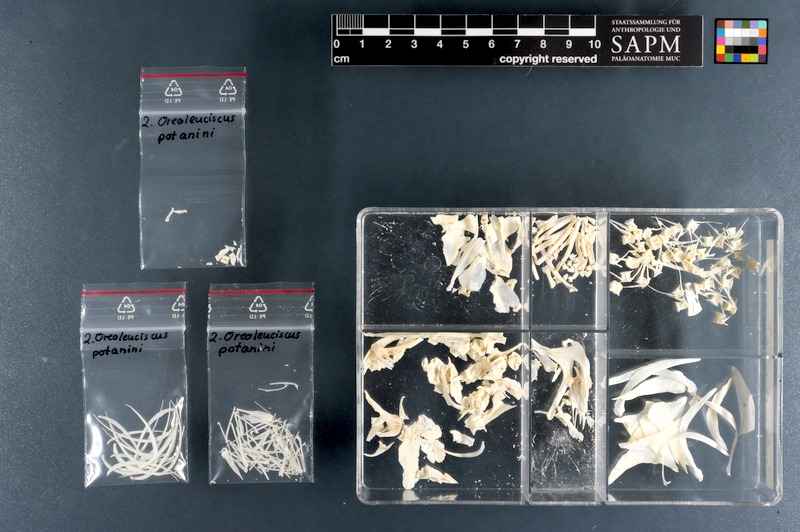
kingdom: Animalia
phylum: Chordata
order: Cypriniformes
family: Cyprinidae
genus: Oreoleuciscus
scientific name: Oreoleuciscus potanini
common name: Altai osman
